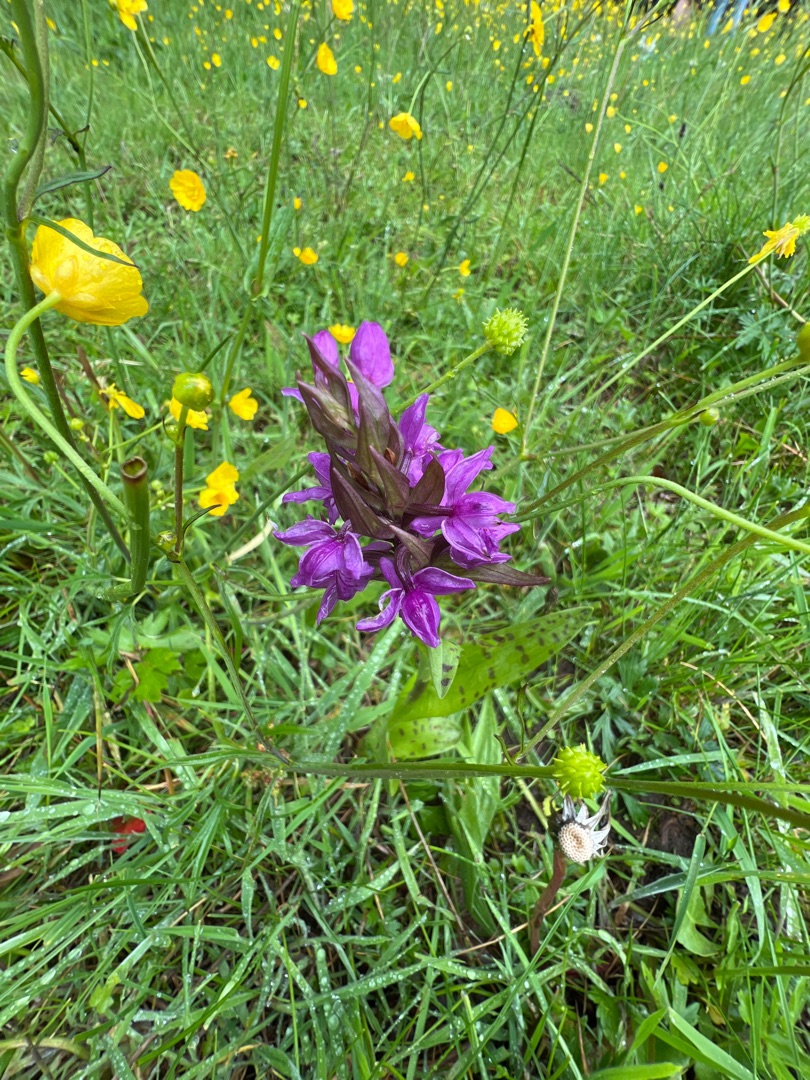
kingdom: Plantae
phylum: Tracheophyta
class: Liliopsida
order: Asparagales
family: Orchidaceae
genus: Dactylorhiza
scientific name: Dactylorhiza majalis
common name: Maj-gøgeurt
